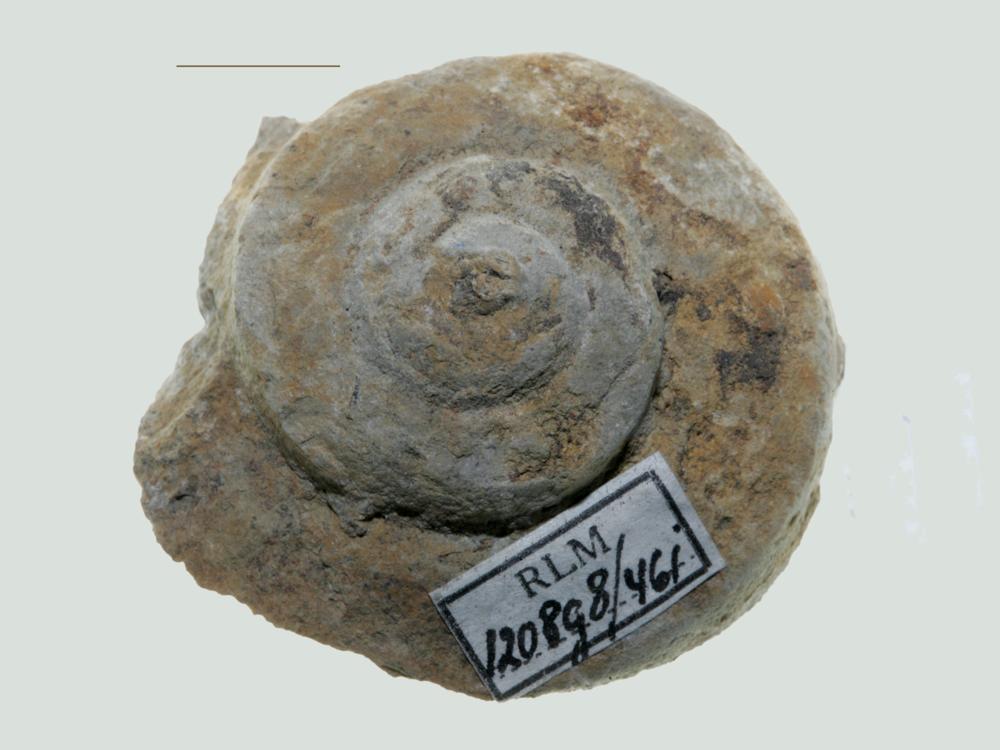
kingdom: Animalia
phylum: Mollusca
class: Gastropoda
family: Euomphalidae
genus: Euomphalus
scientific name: Euomphalus
